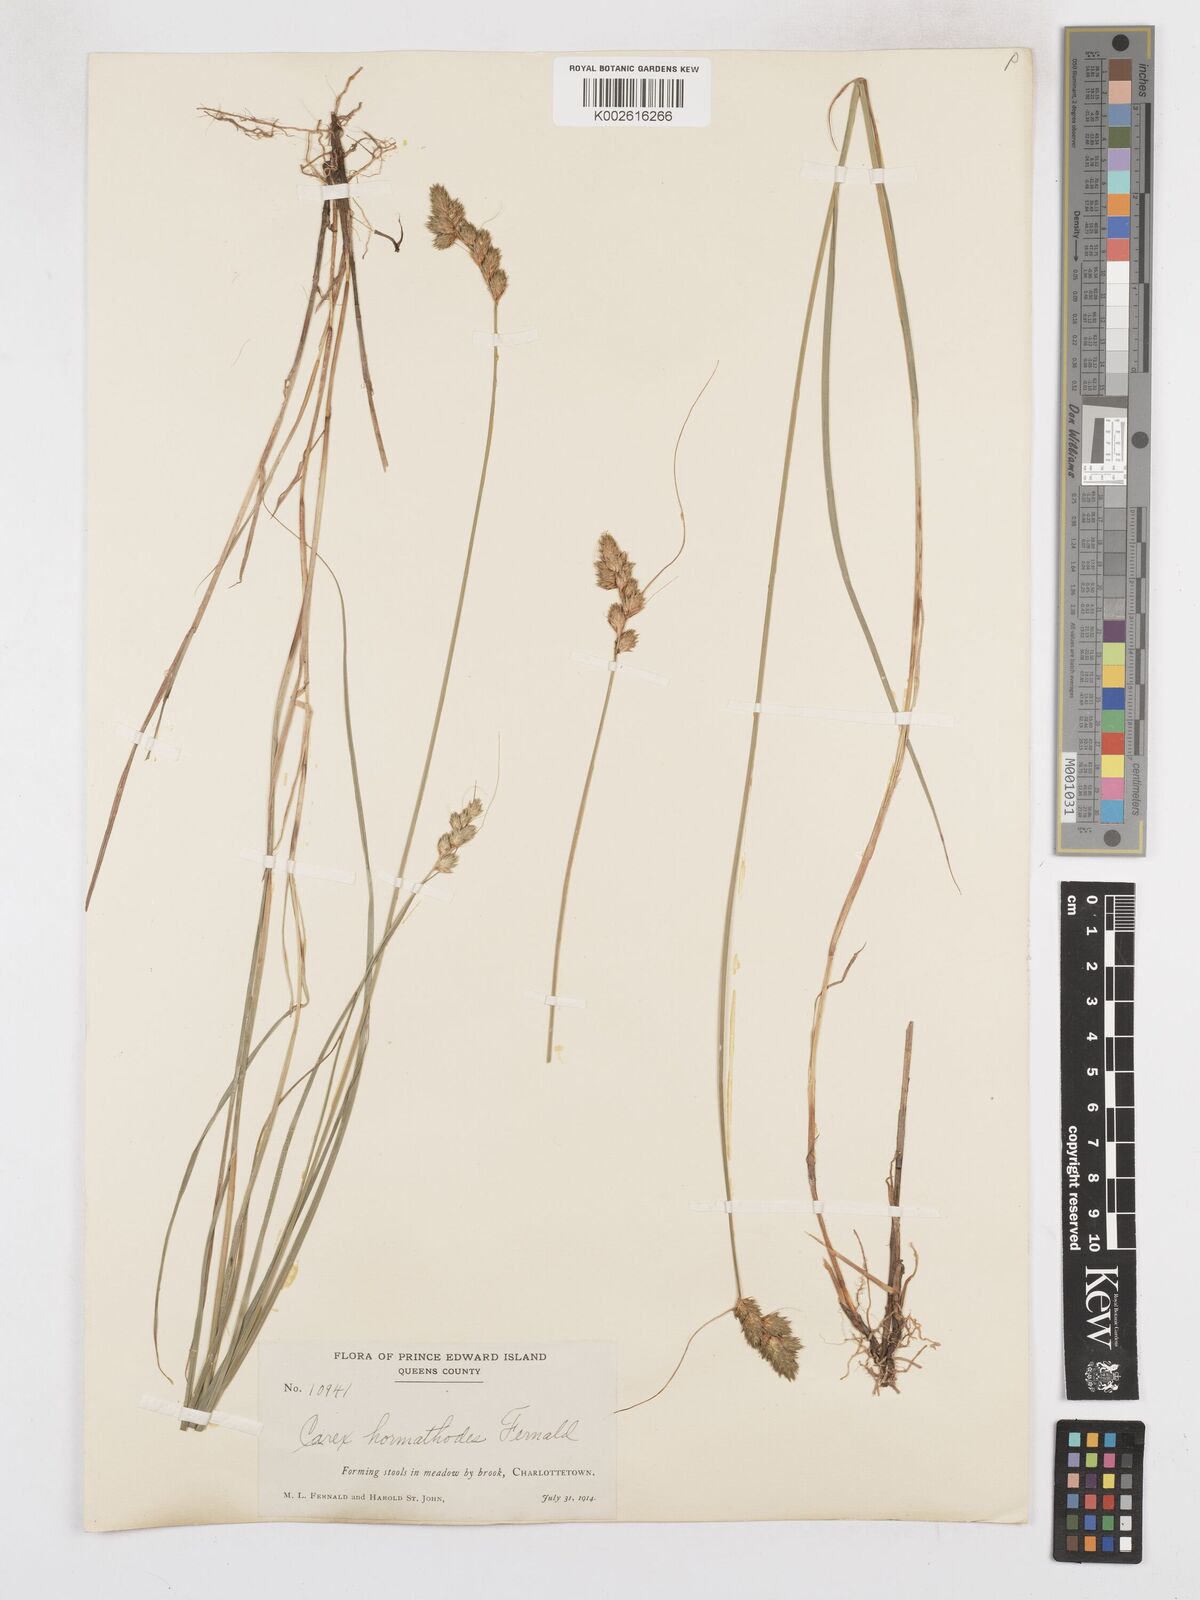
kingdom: Plantae
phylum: Tracheophyta
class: Liliopsida
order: Poales
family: Cyperaceae
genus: Carex
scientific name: Carex hormathodes
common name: Marsh straw sedge
